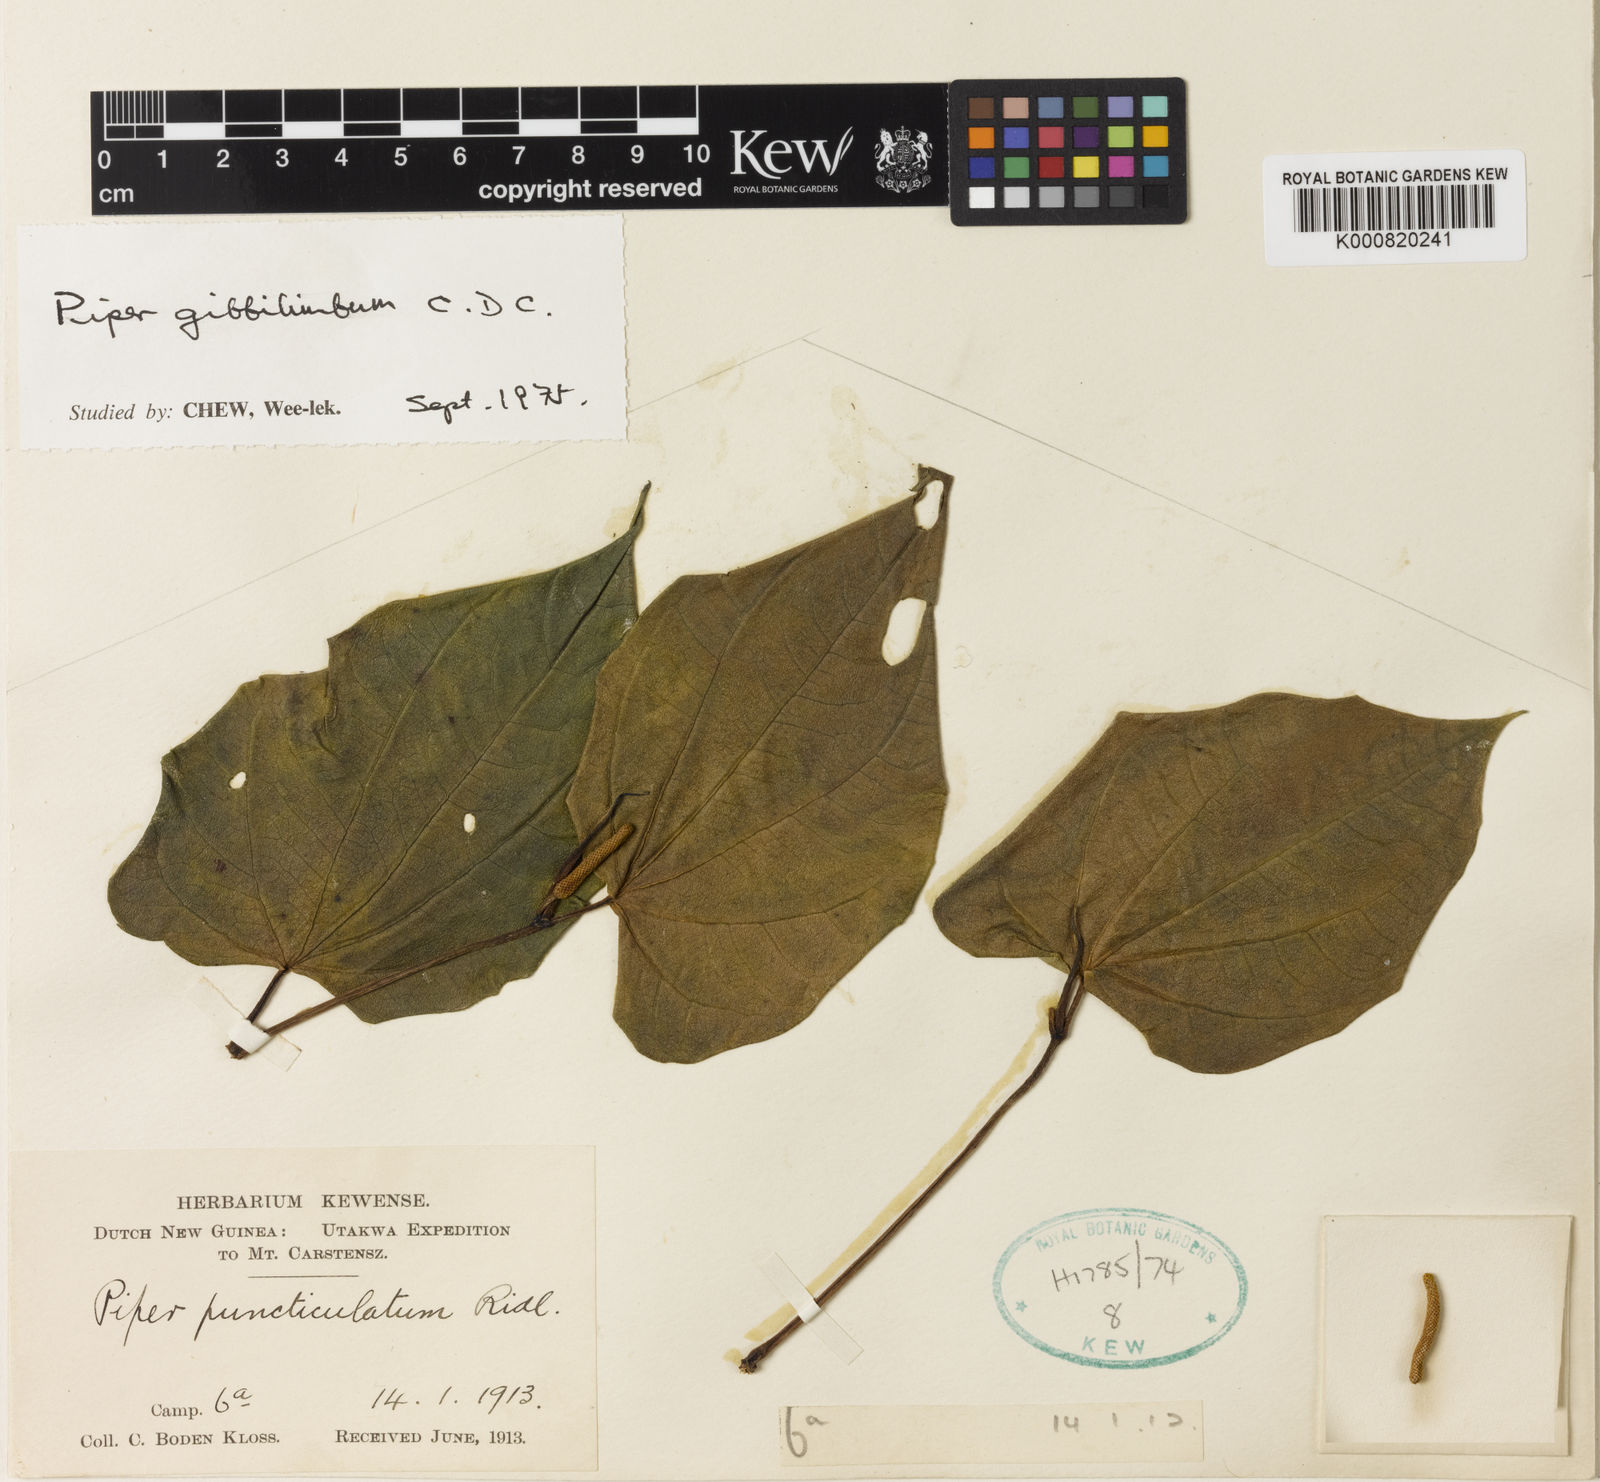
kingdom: Plantae
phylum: Tracheophyta
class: Magnoliopsida
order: Piperales
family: Piperaceae
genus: Piper
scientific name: Piper gibbilimbum
